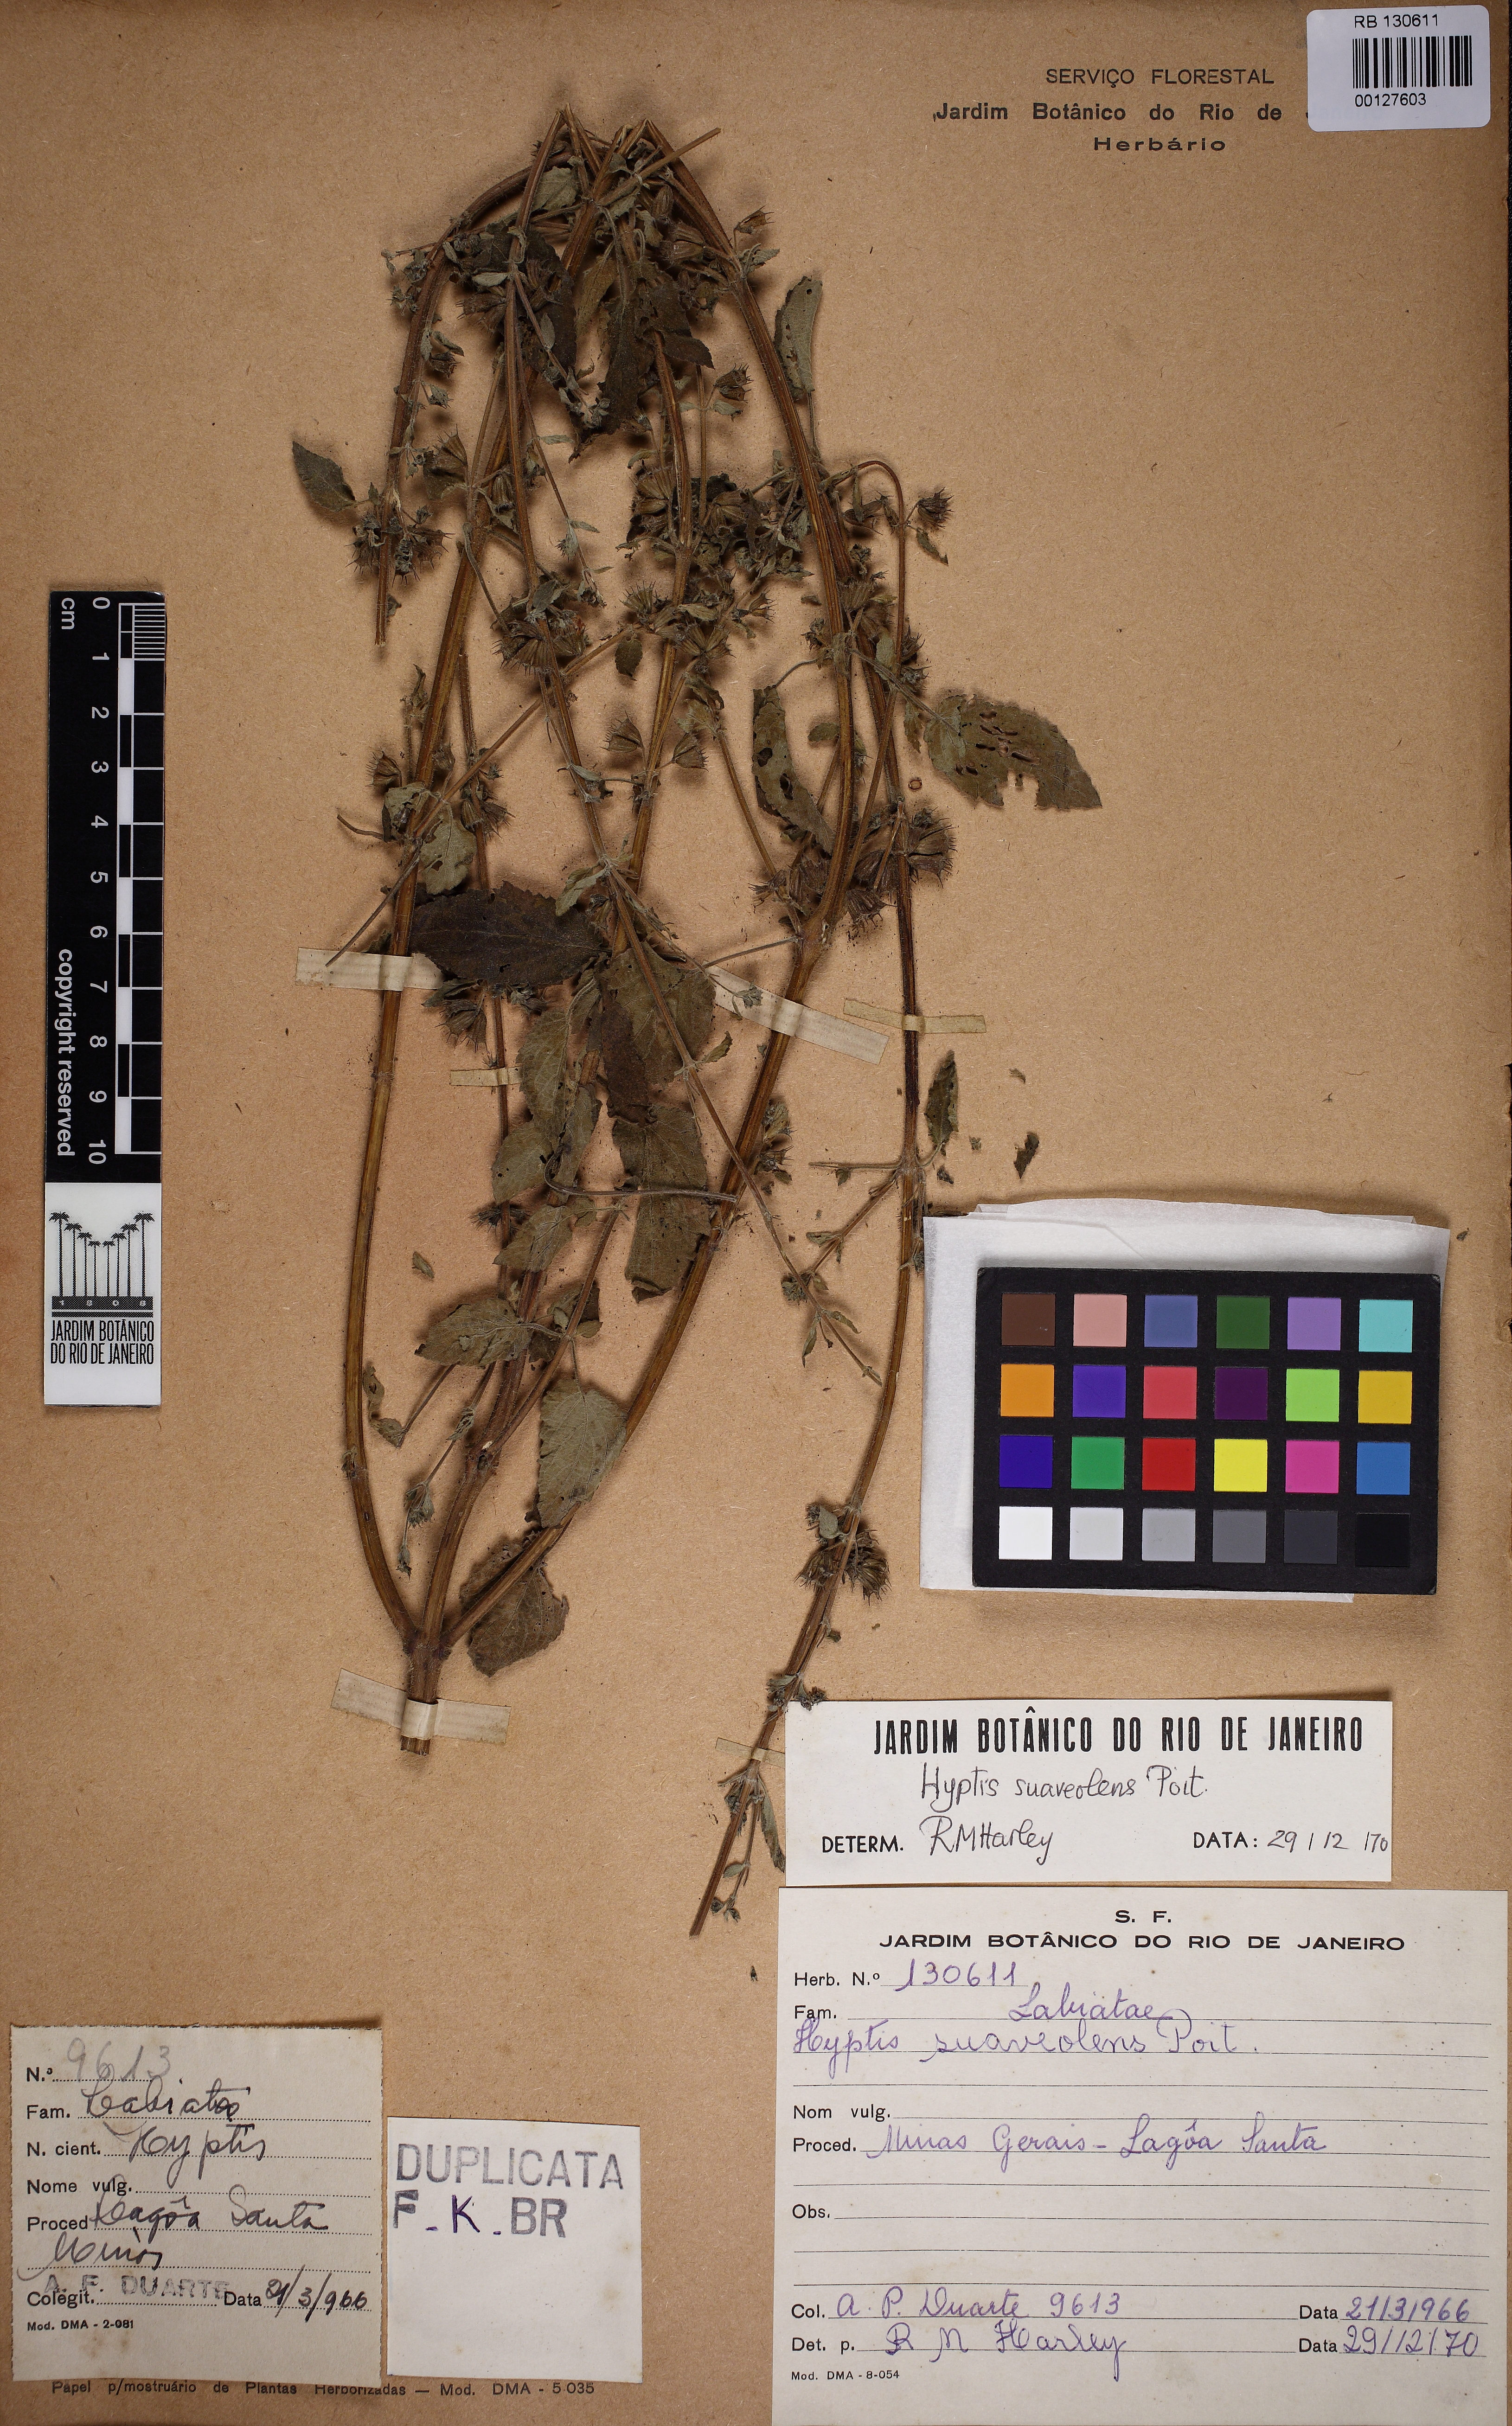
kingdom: Plantae
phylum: Tracheophyta
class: Magnoliopsida
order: Lamiales
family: Bignoniaceae
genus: Fridericia
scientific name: Fridericia triplinervia
